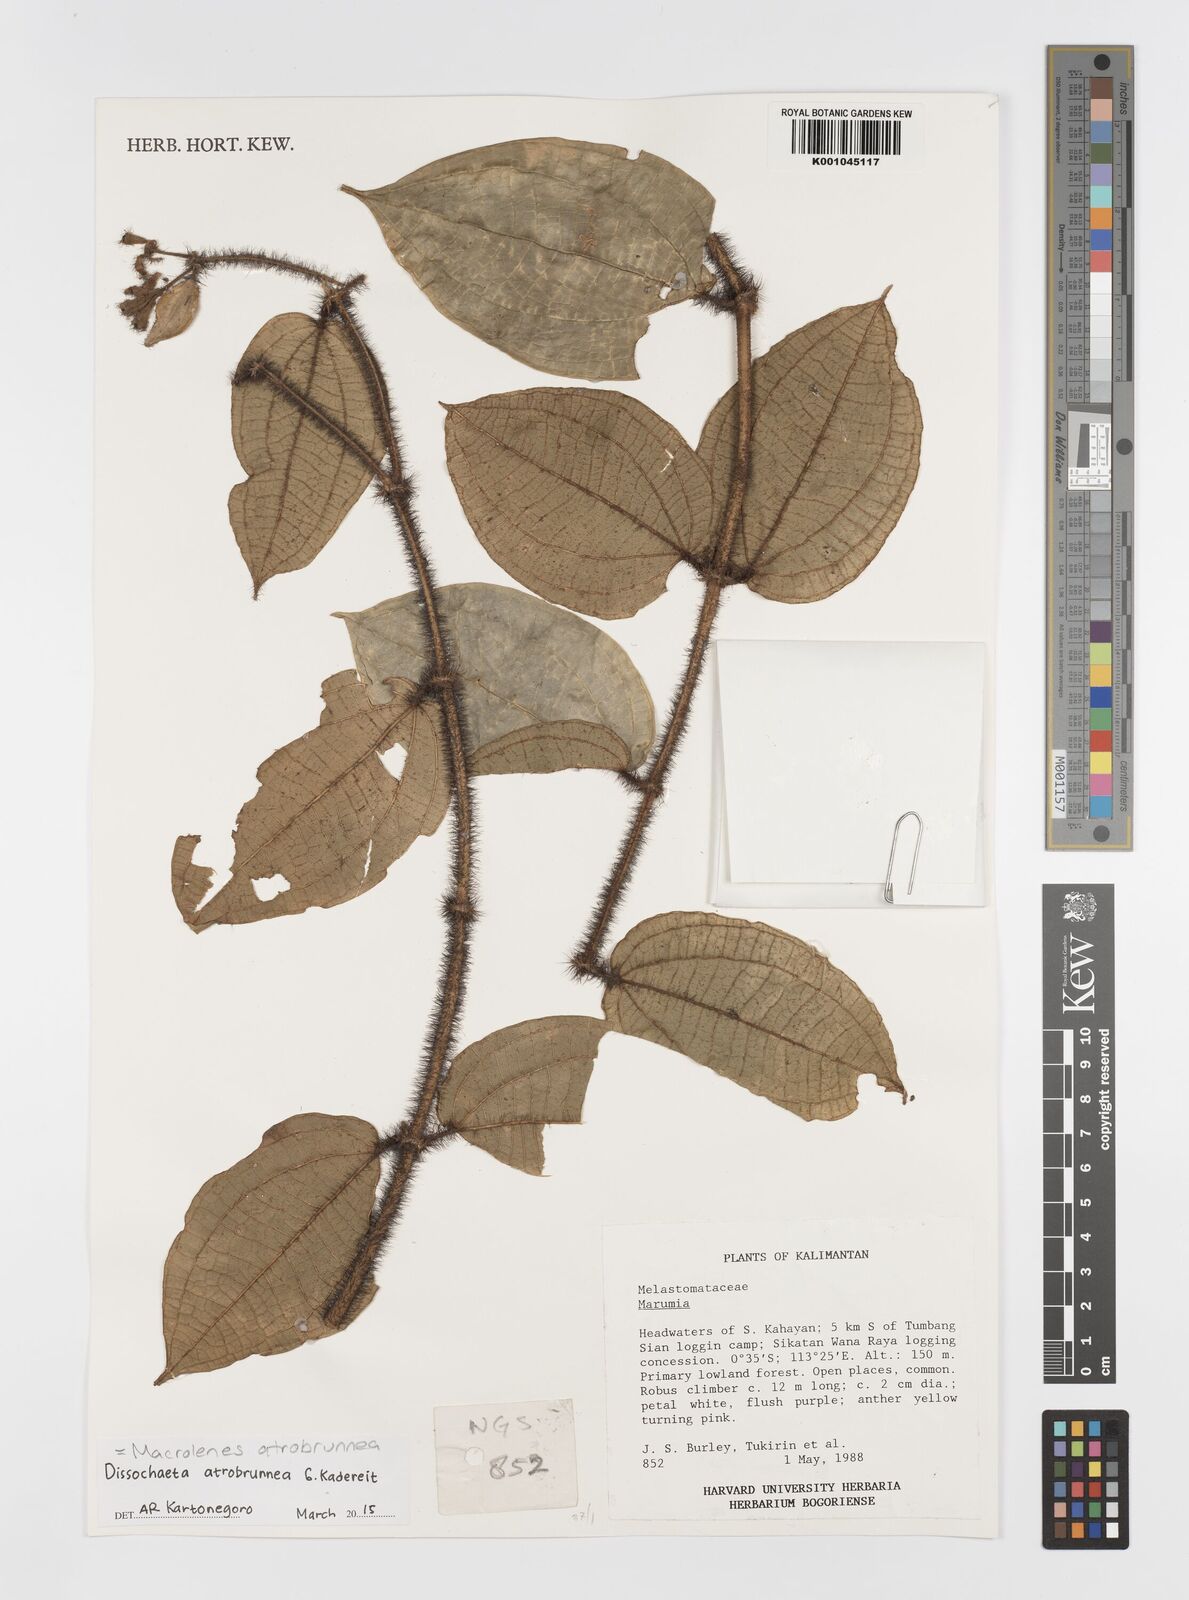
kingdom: Plantae
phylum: Tracheophyta
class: Magnoliopsida
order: Myrtales
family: Melastomataceae
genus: Macrolenes
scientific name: Macrolenes atrobrunnea
